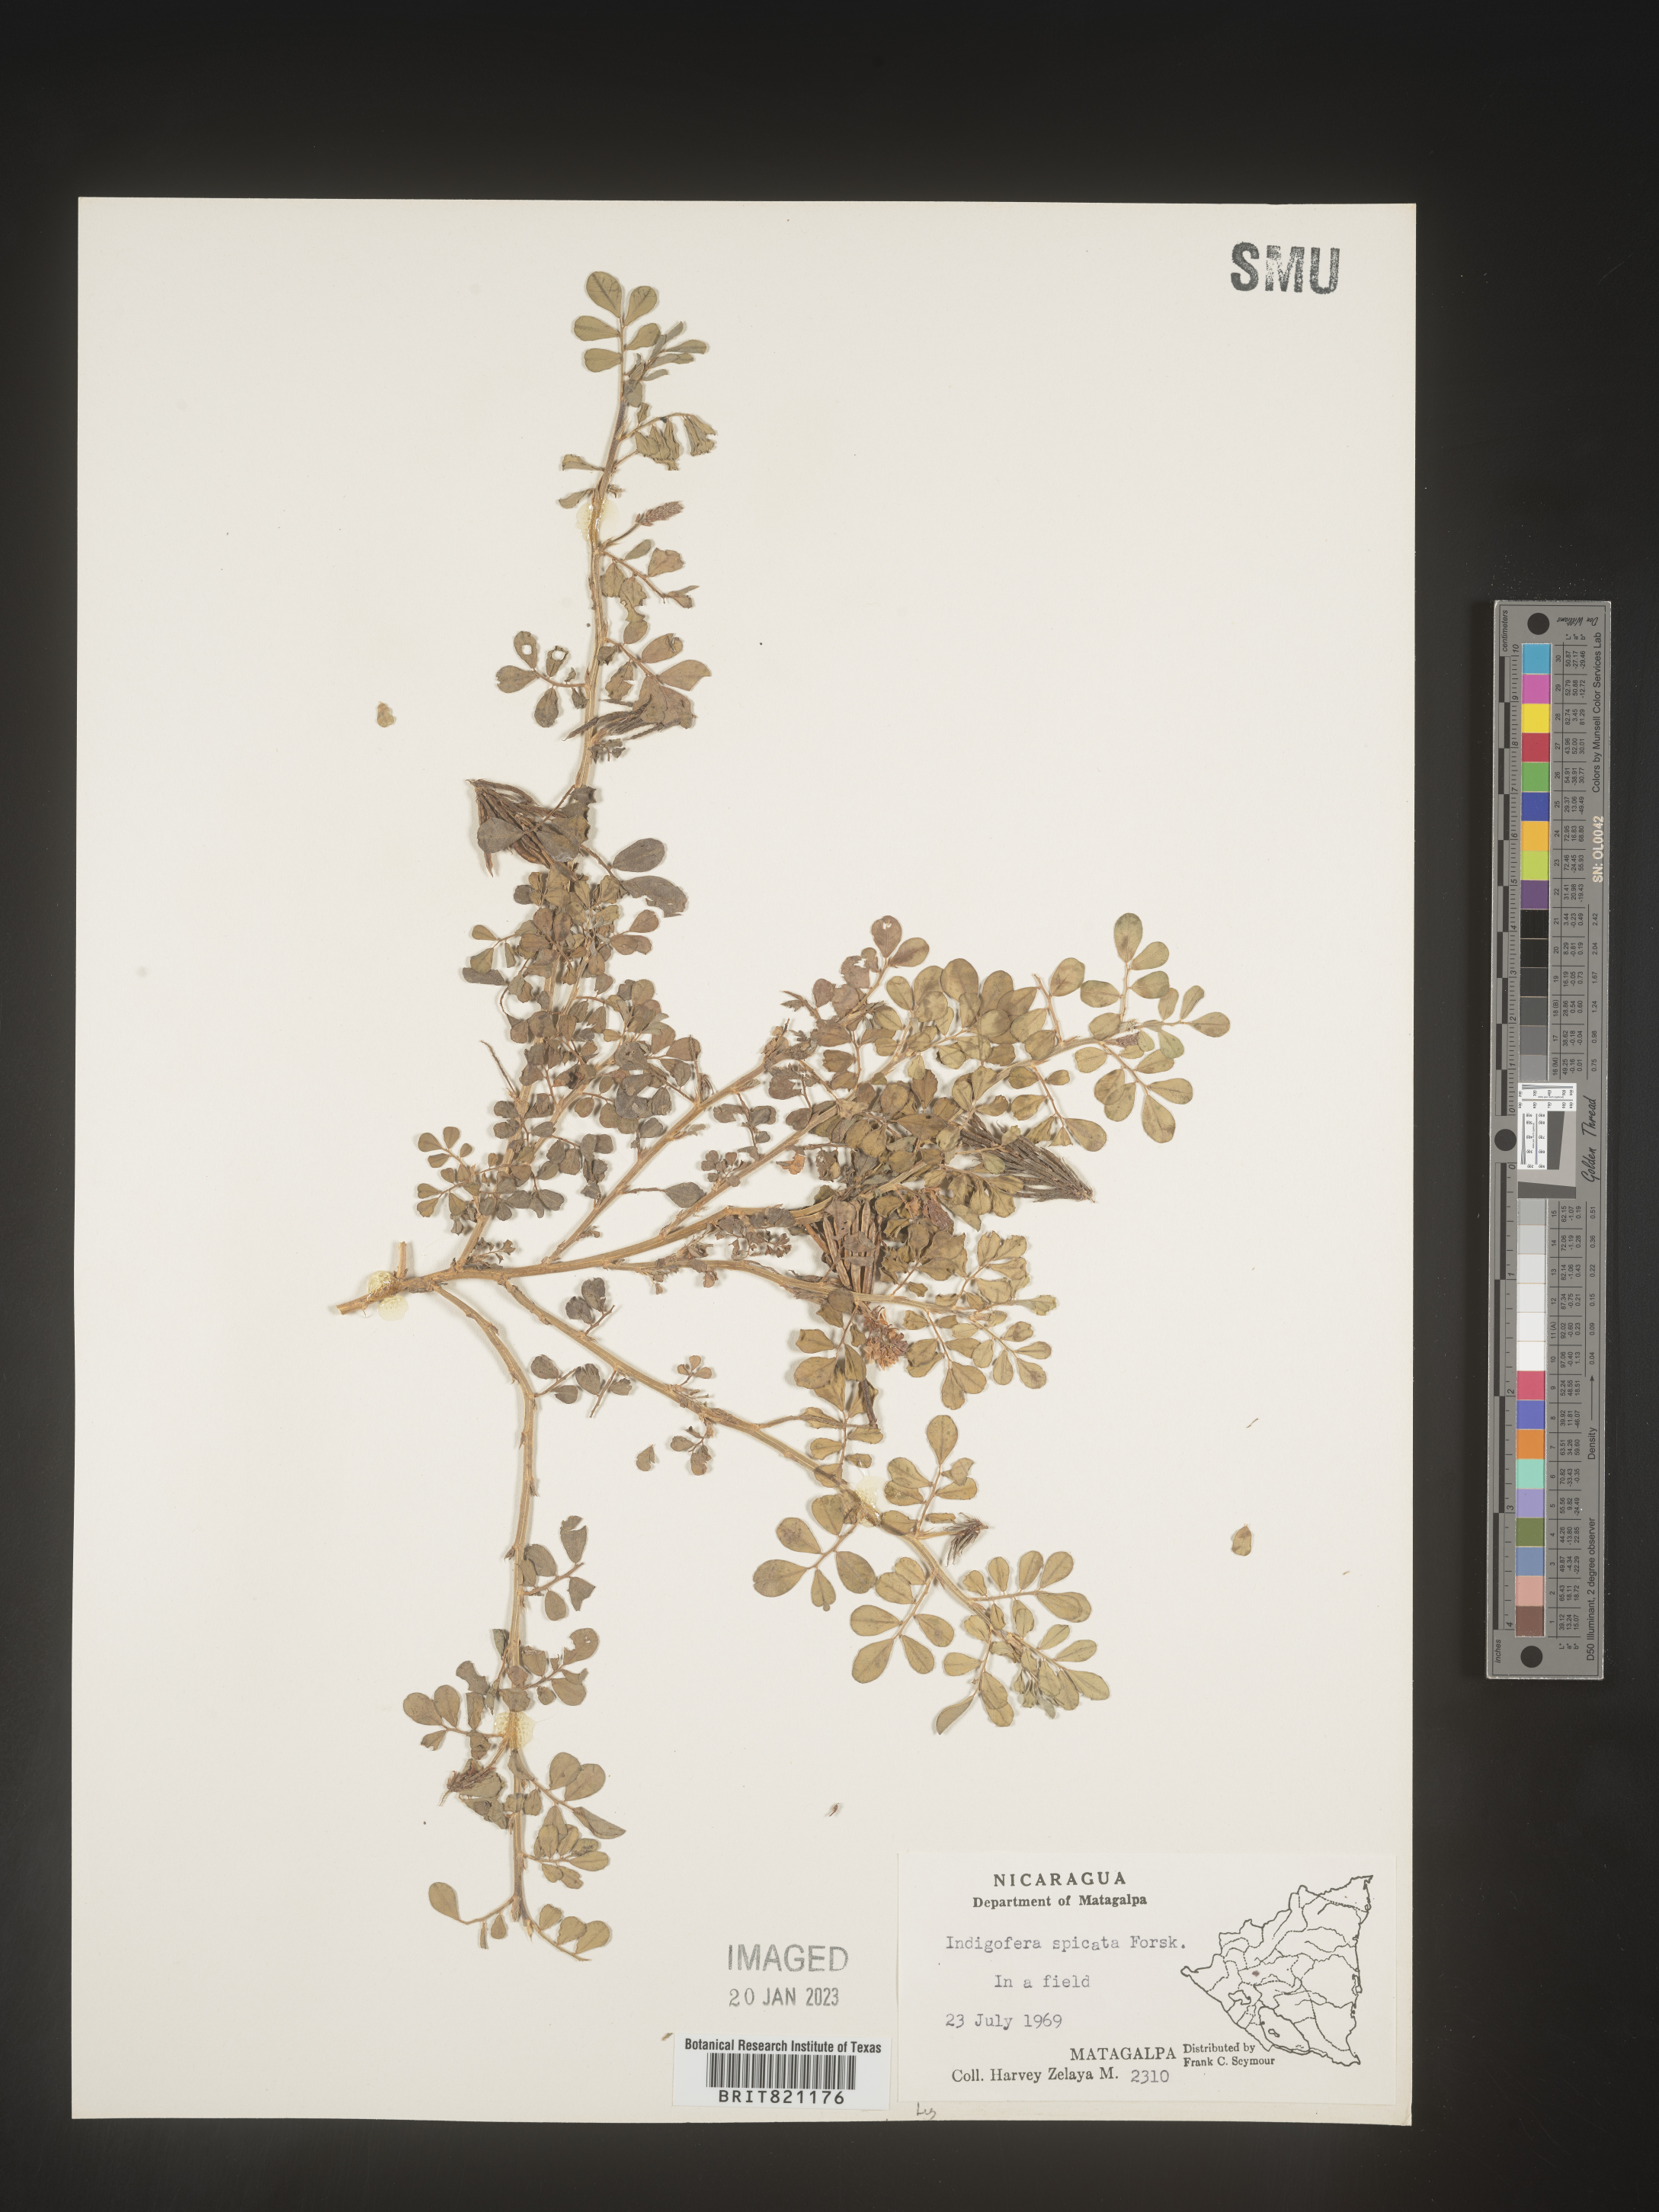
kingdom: Plantae
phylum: Tracheophyta
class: Magnoliopsida
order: Fabales
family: Fabaceae
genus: Indigofera
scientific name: Indigofera
